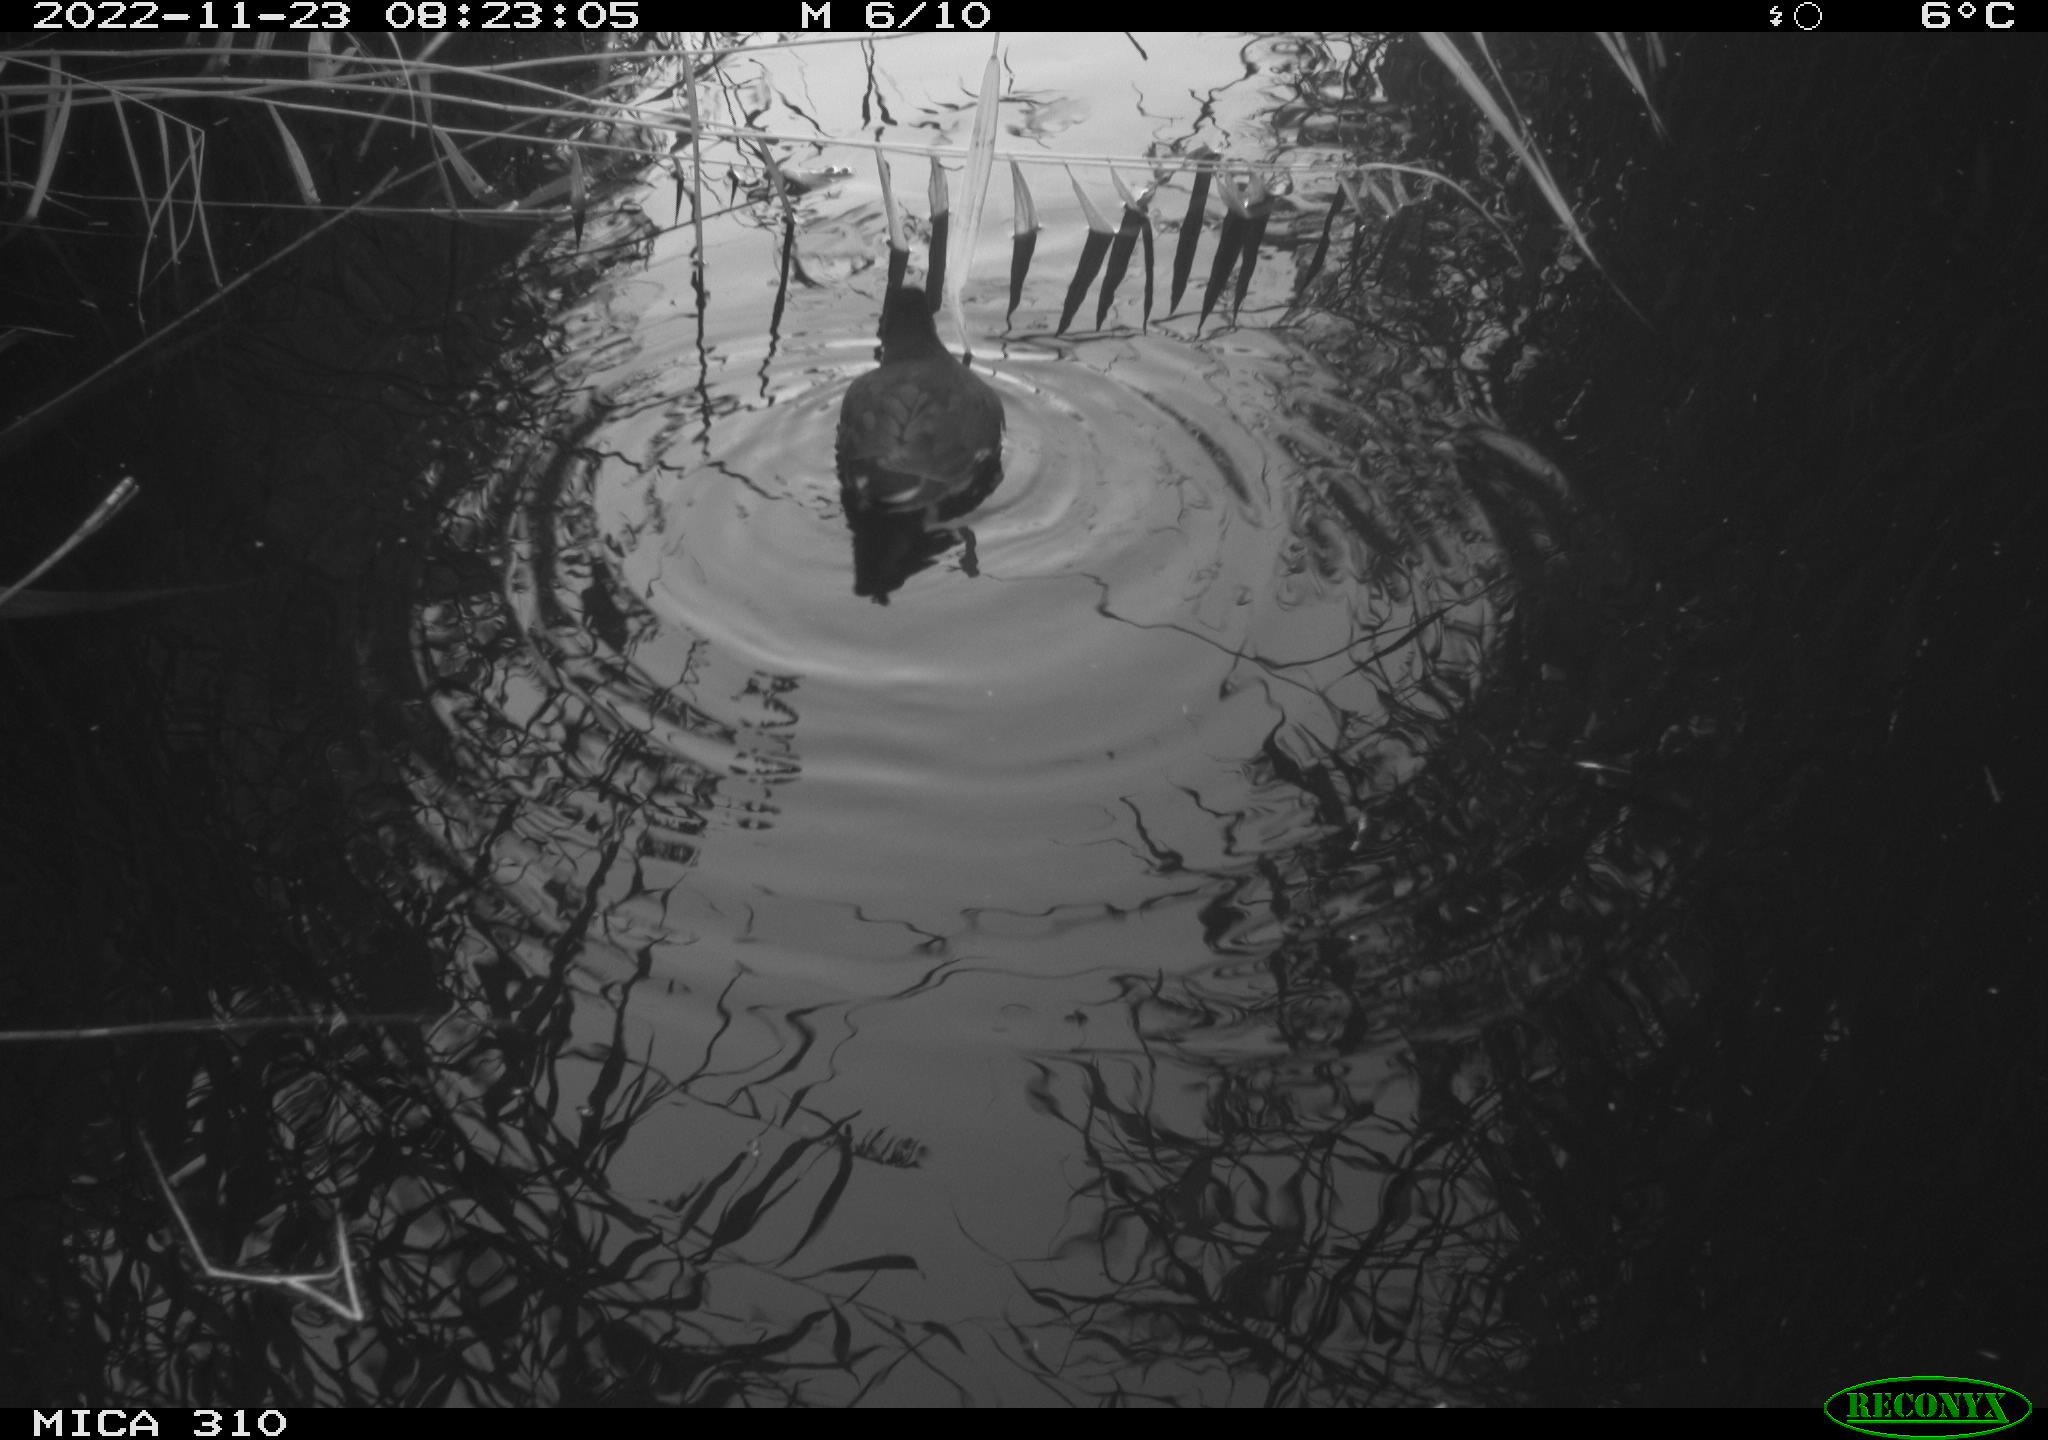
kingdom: Animalia
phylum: Chordata
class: Aves
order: Gruiformes
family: Rallidae
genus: Gallinula
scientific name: Gallinula chloropus
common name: Common moorhen
